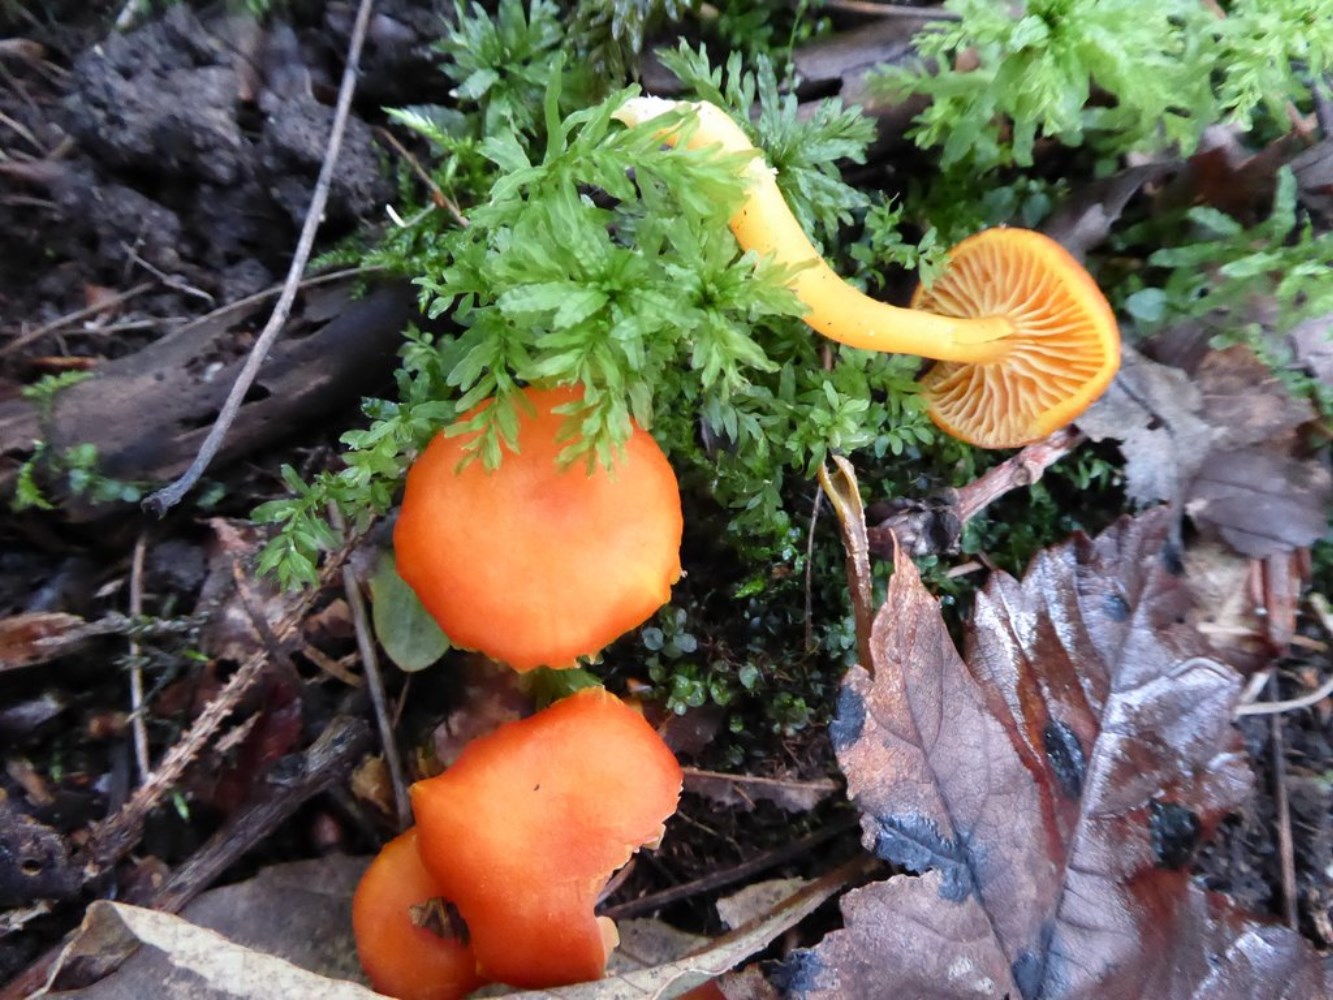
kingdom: Fungi
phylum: Basidiomycota
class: Agaricomycetes
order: Agaricales
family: Hygrophoraceae
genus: Hygrocybe
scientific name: Hygrocybe miniata
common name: mønje-vokshat
